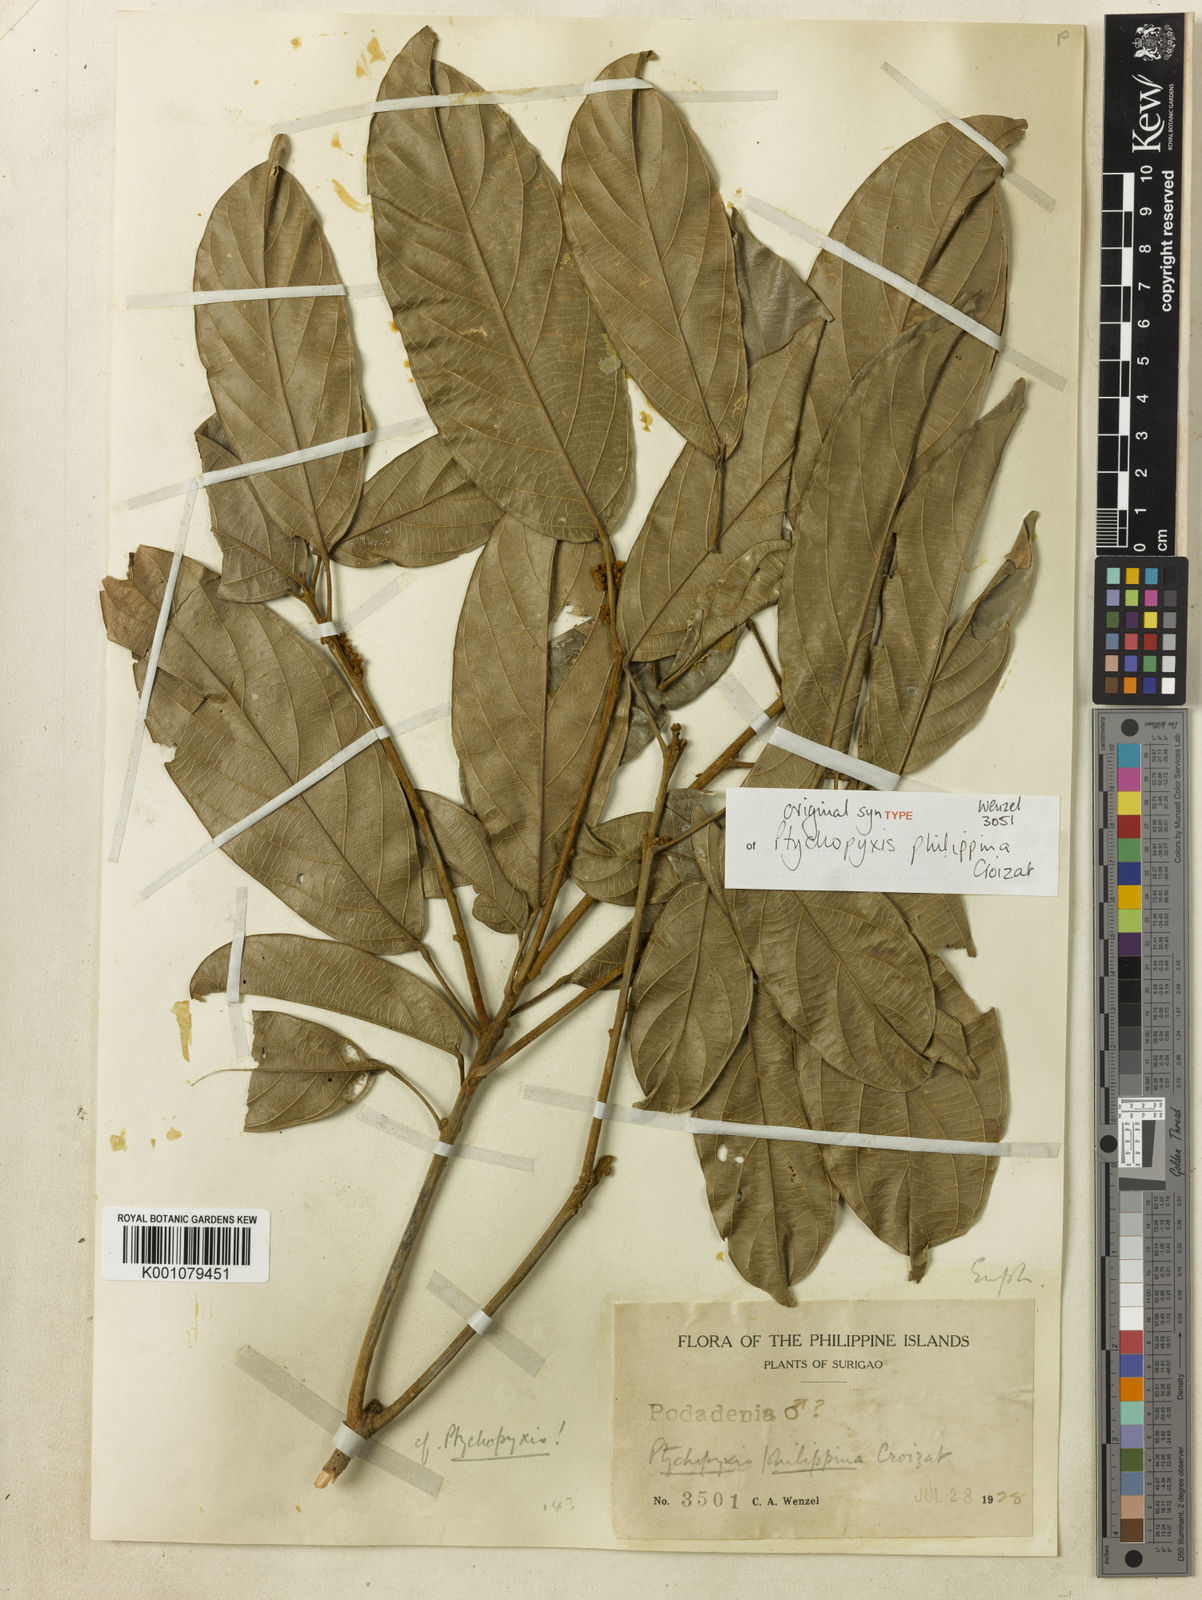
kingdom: Plantae
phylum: Tracheophyta
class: Magnoliopsida
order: Malpighiales
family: Euphorbiaceae
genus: Ptychopyxis
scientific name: Ptychopyxis bacciformis
